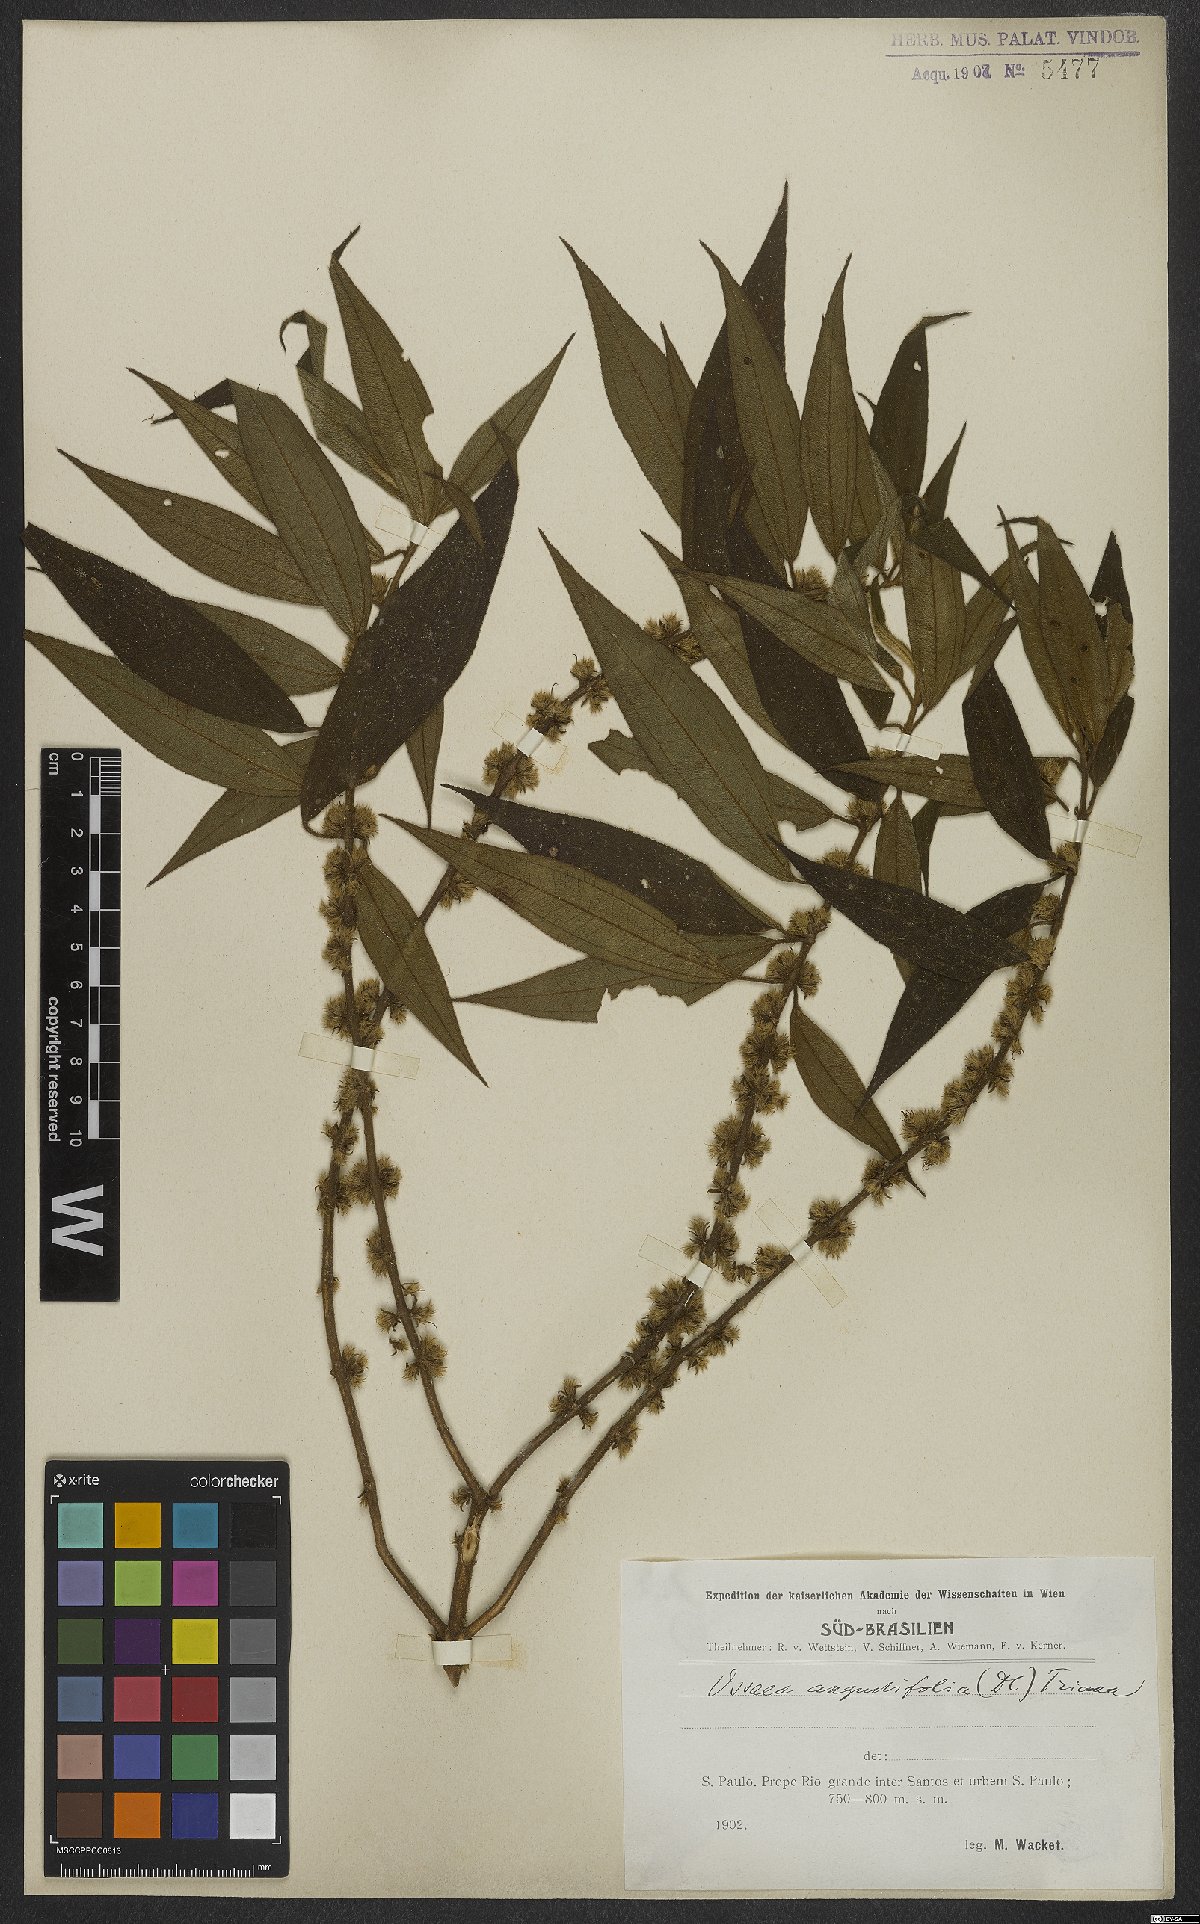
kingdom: Plantae
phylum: Tracheophyta
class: Magnoliopsida
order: Myrtales
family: Melastomataceae
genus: Miconia
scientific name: Miconia corcovadensis
